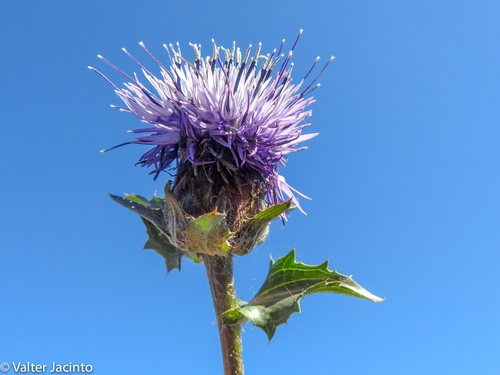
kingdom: Plantae
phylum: Tracheophyta
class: Magnoliopsida
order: Asterales
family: Asteraceae
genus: Carduncellus
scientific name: Carduncellus caeruleus
